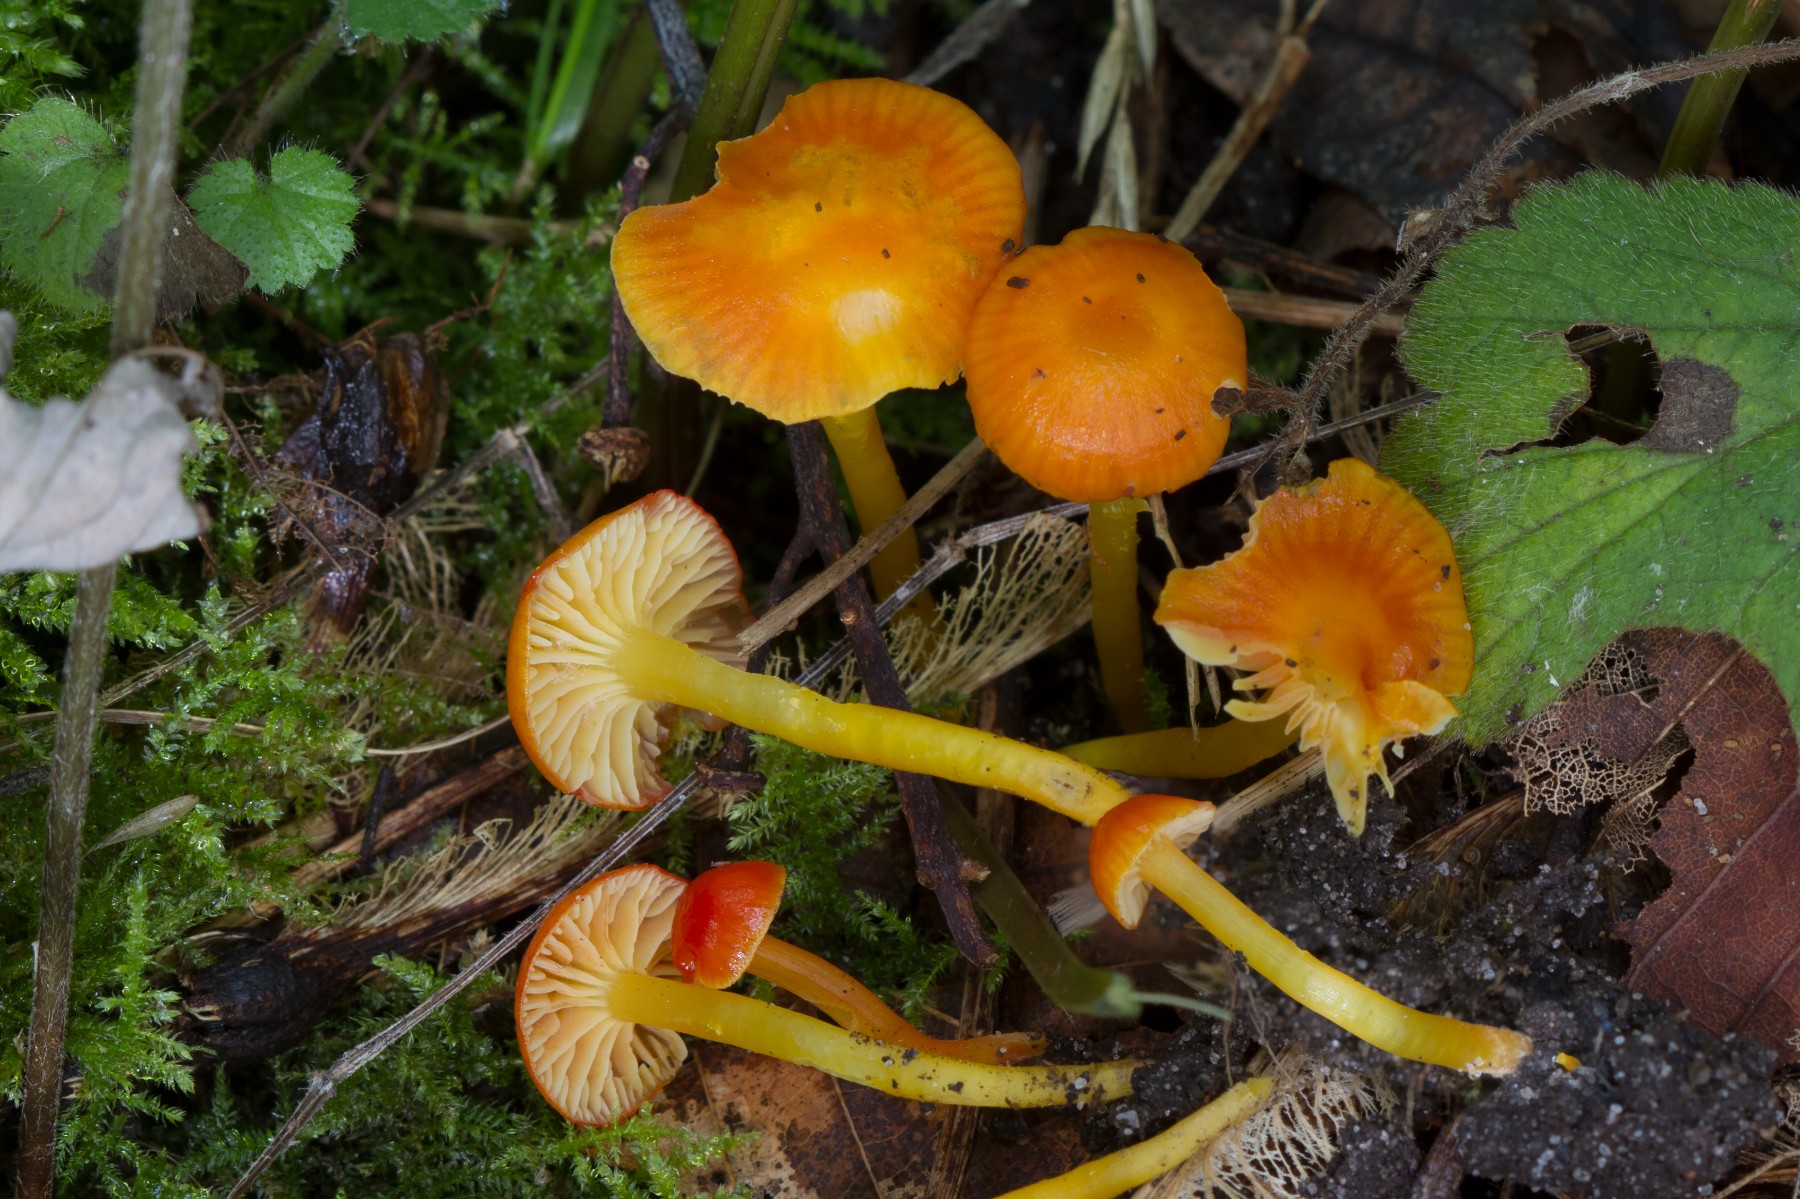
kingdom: Fungi
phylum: Basidiomycota
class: Agaricomycetes
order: Agaricales
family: Hygrophoraceae
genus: Hygrocybe
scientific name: Hygrocybe ceracea
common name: voksgul vokshat
